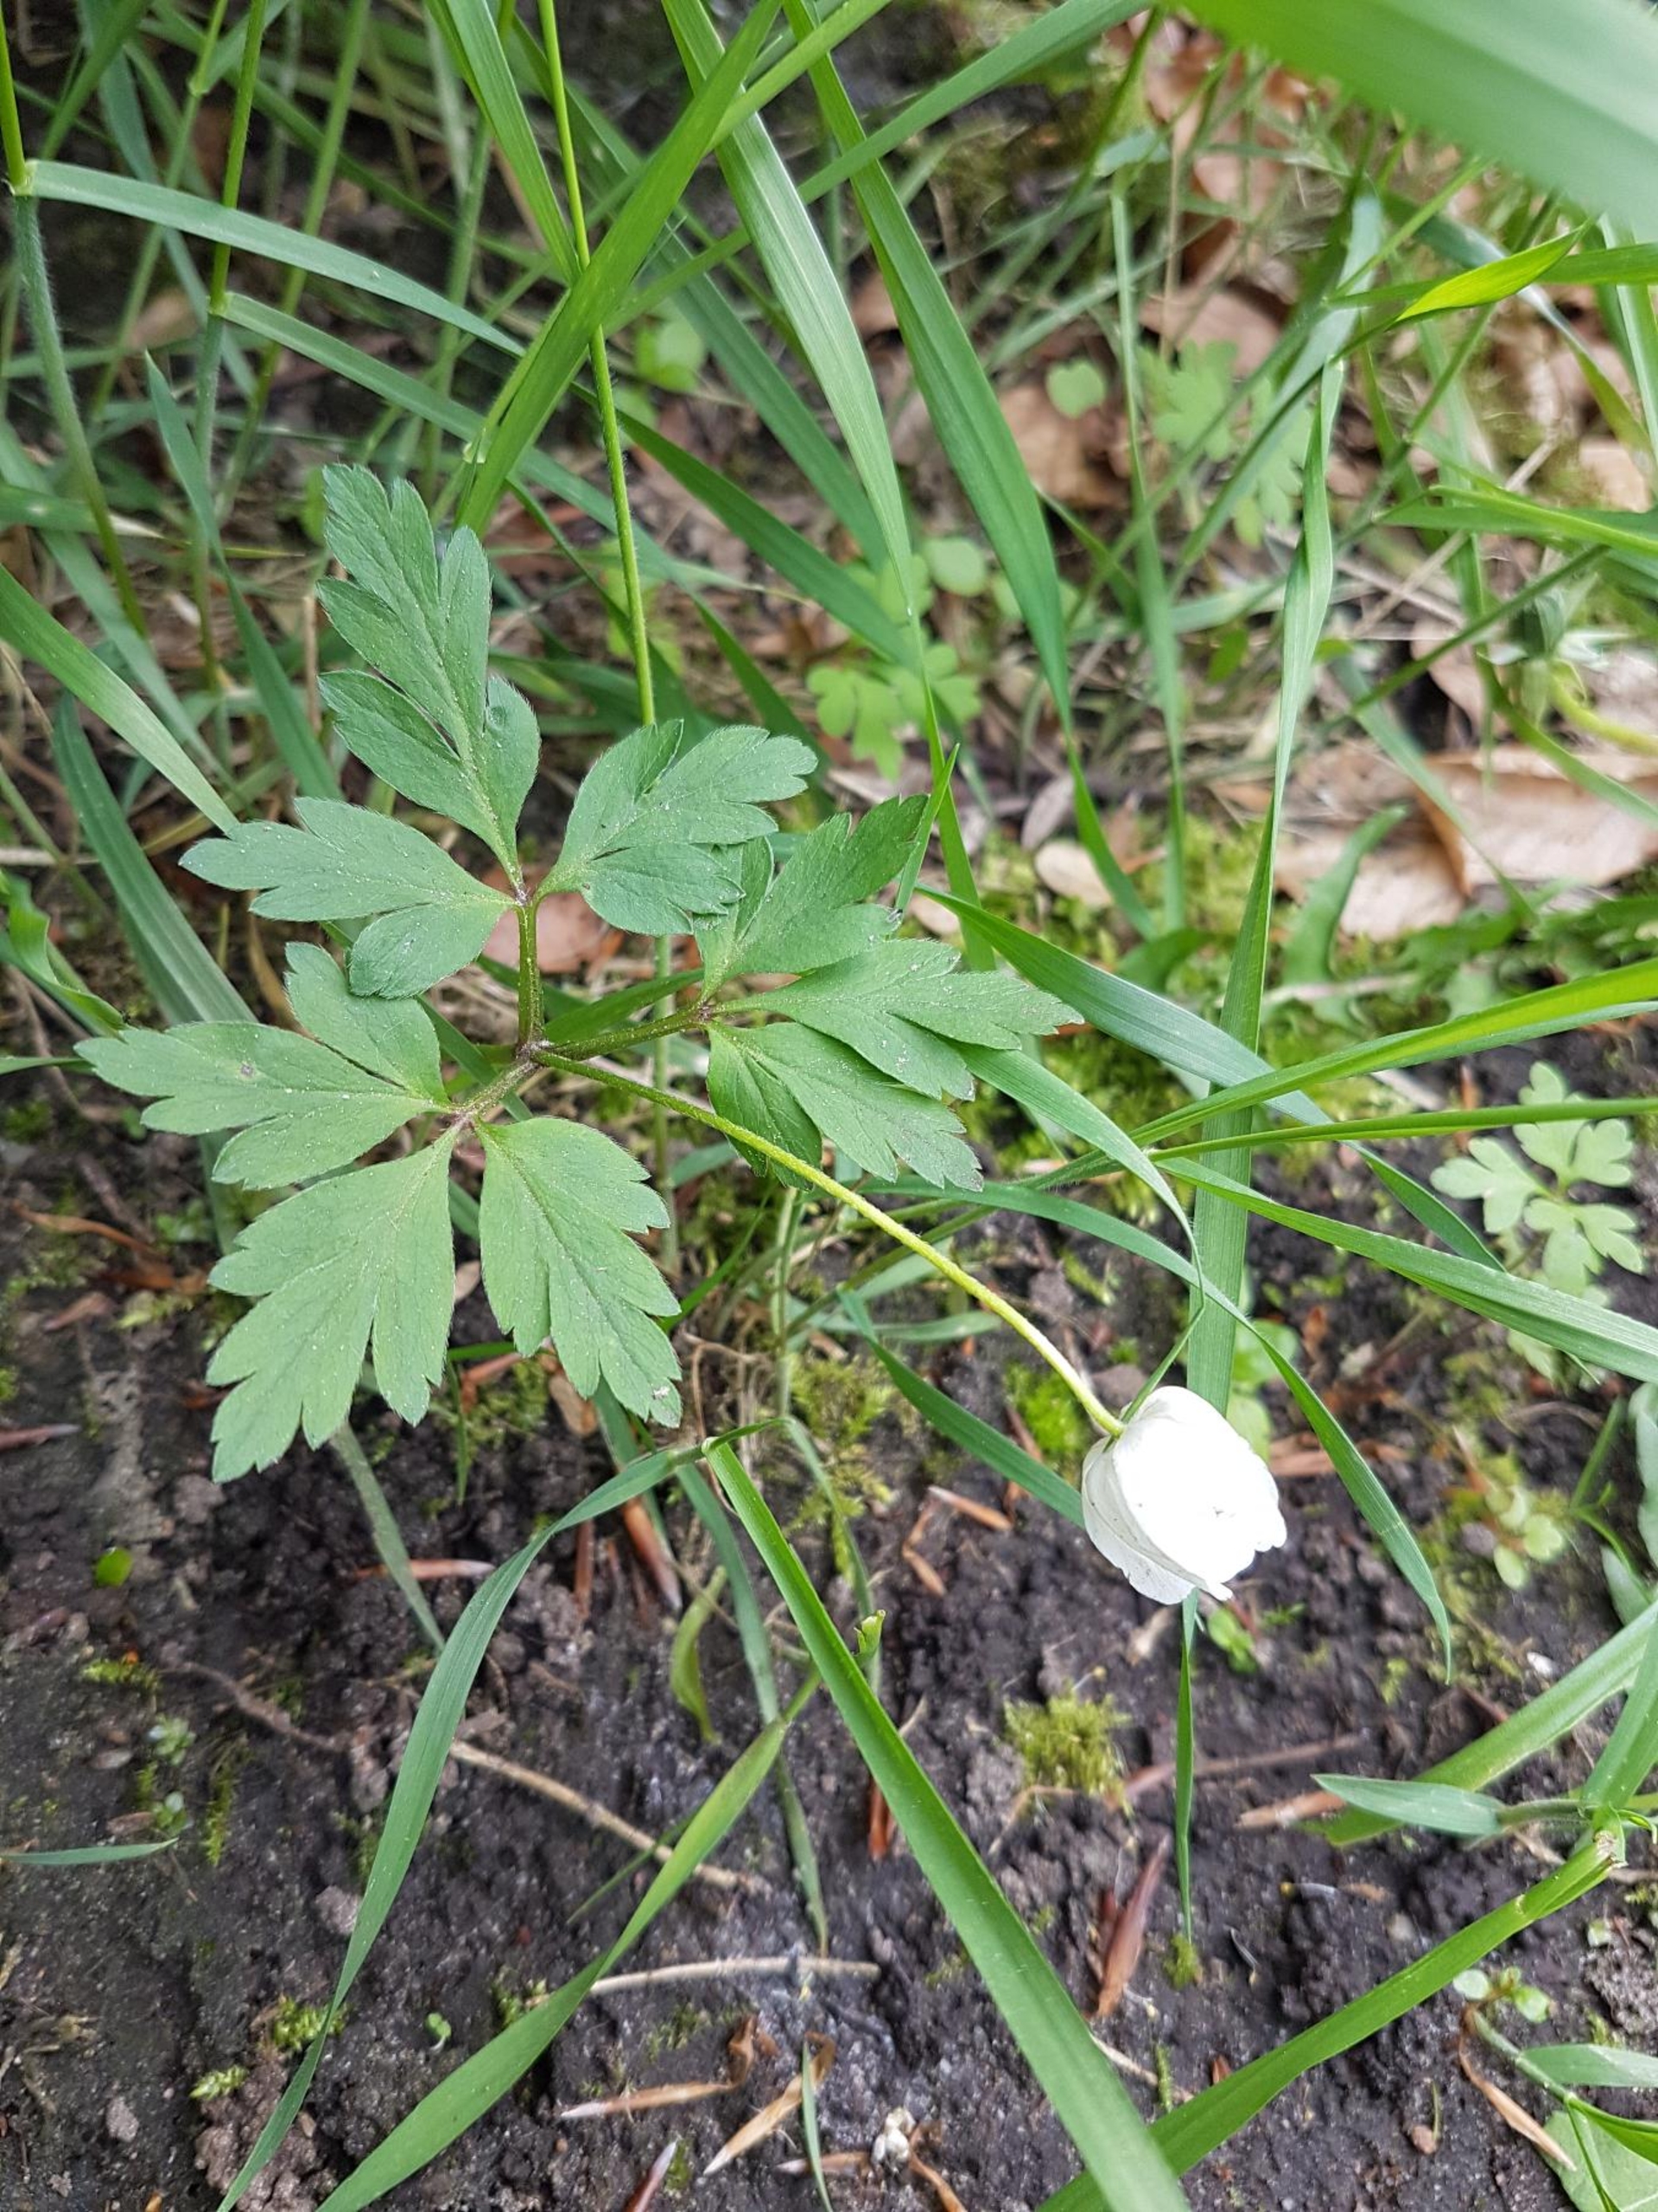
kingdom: Plantae
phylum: Tracheophyta
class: Magnoliopsida
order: Ranunculales
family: Ranunculaceae
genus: Anemone
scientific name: Anemone nemorosa
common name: Hvid anemone
